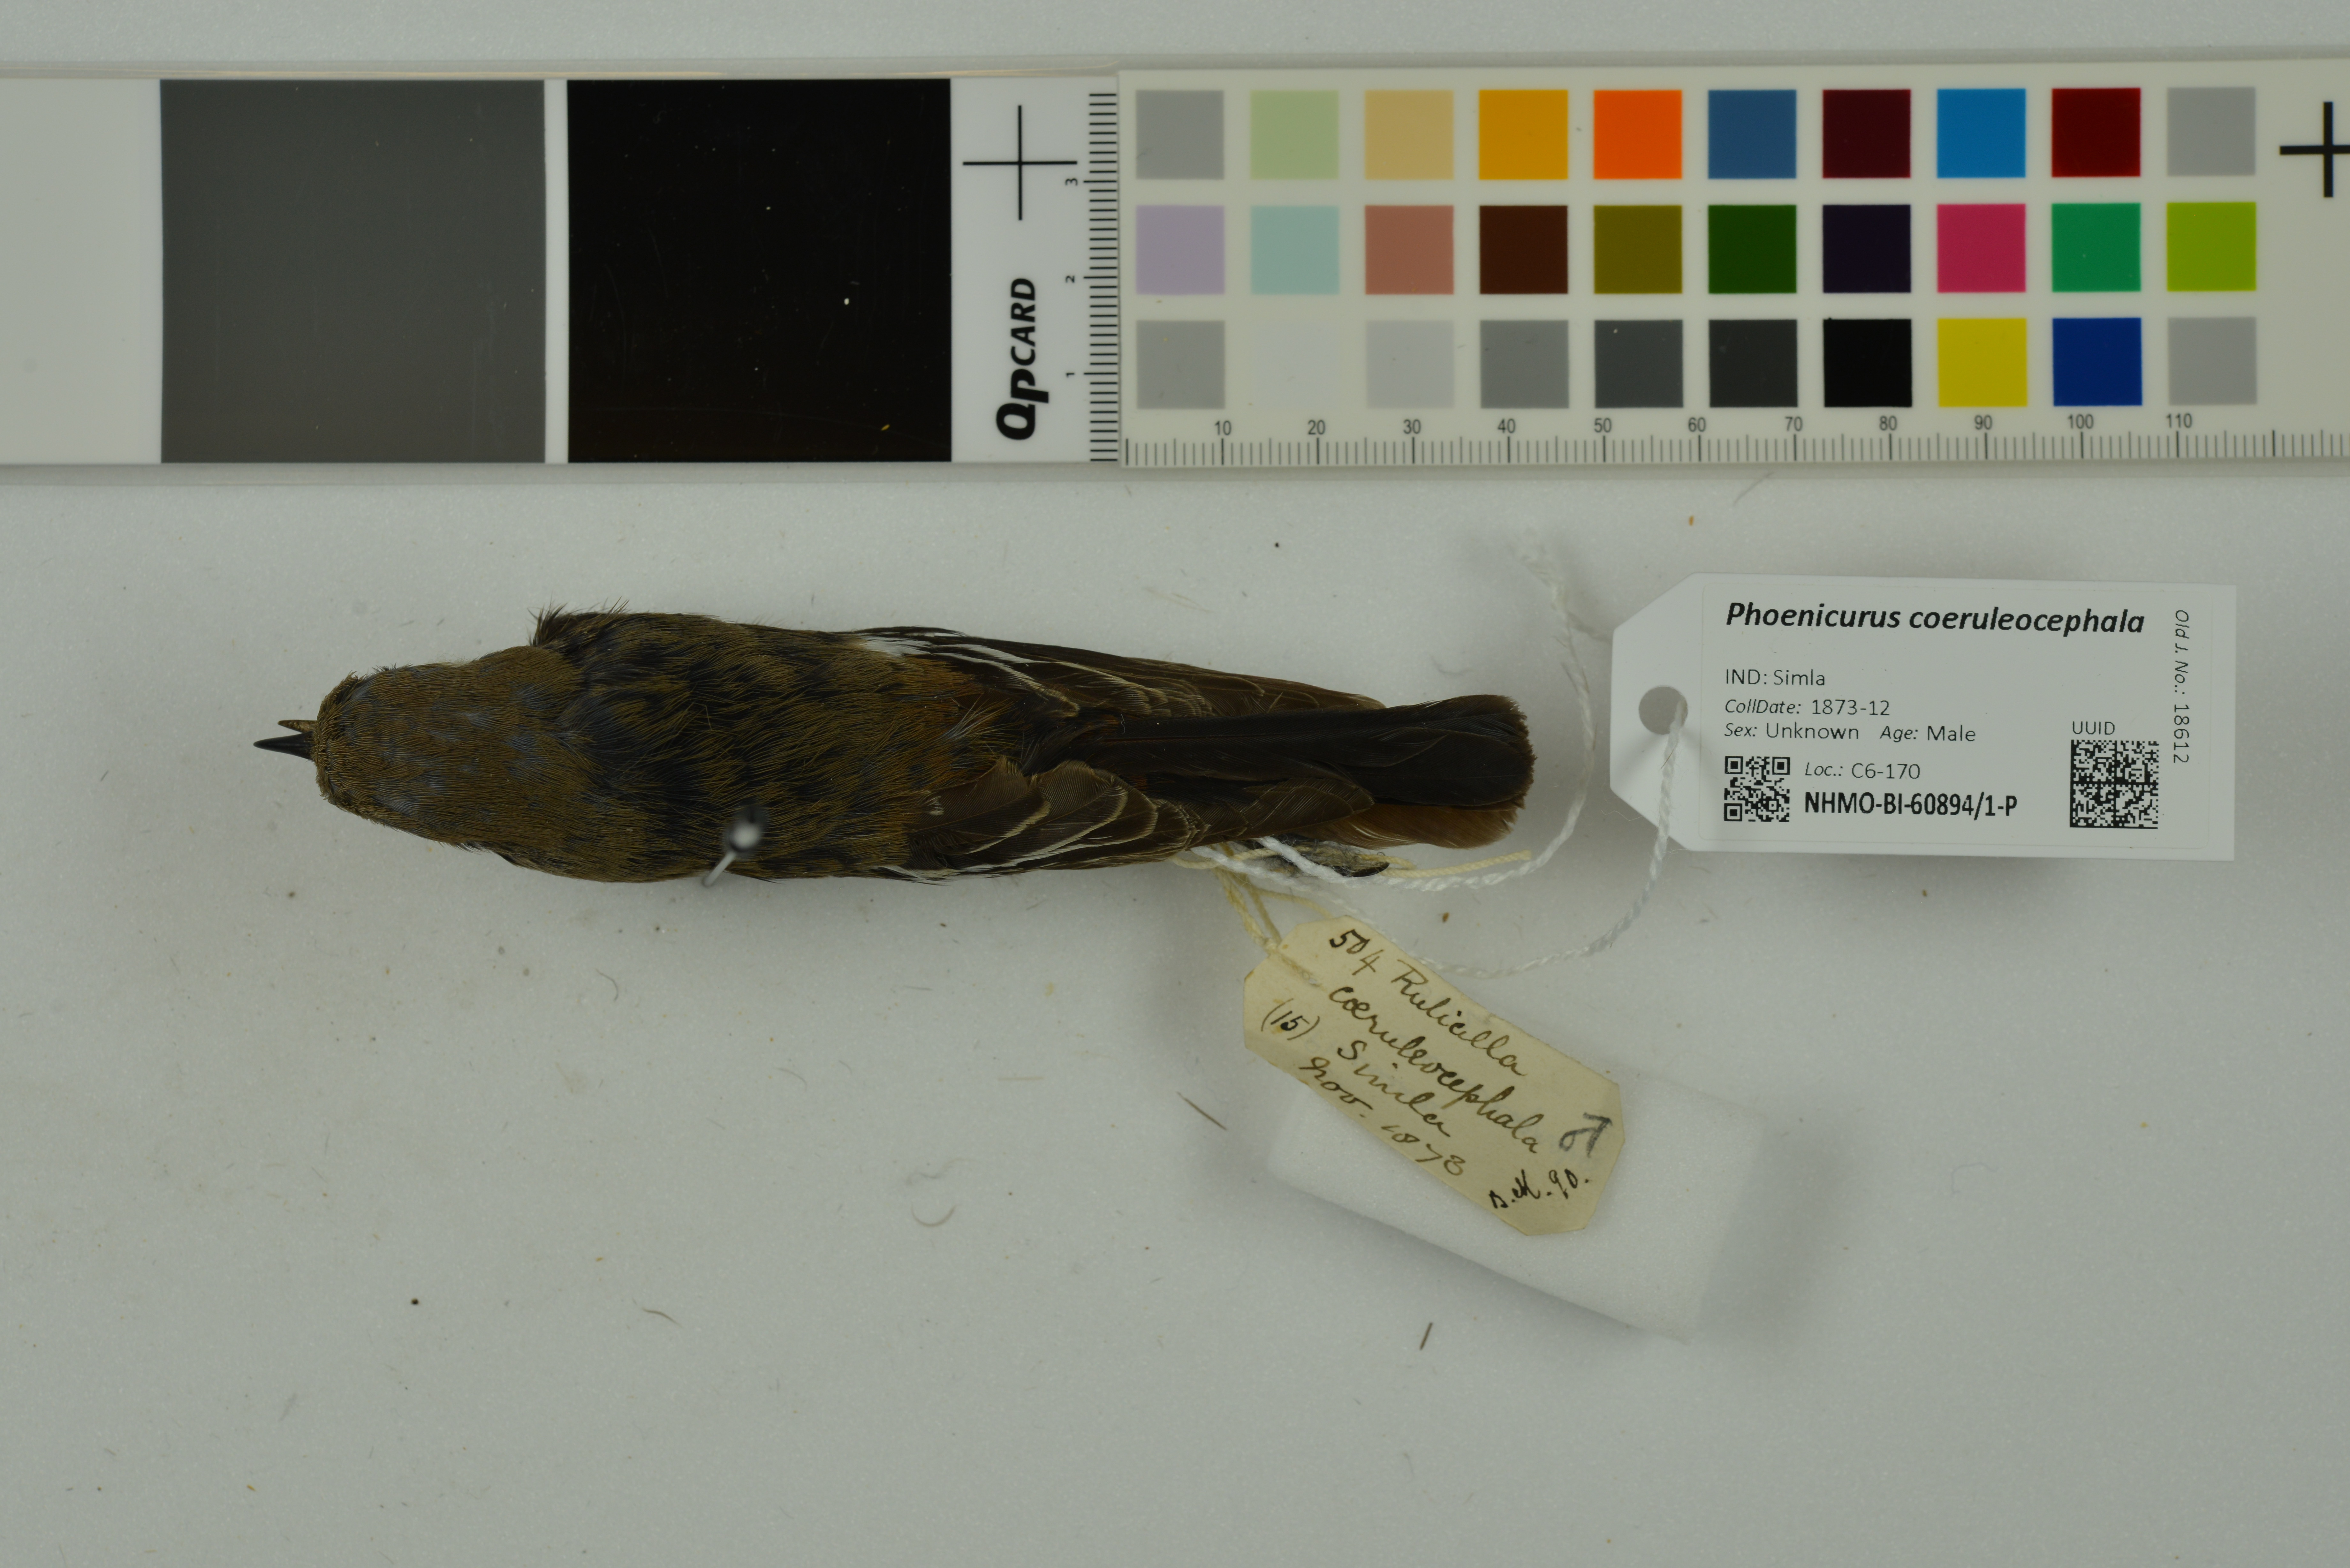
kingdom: Animalia
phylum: Chordata
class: Aves
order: Passeriformes
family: Muscicapidae
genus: Phoenicurus
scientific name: Phoenicurus coeruleocephala
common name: Blue-capped redstart
